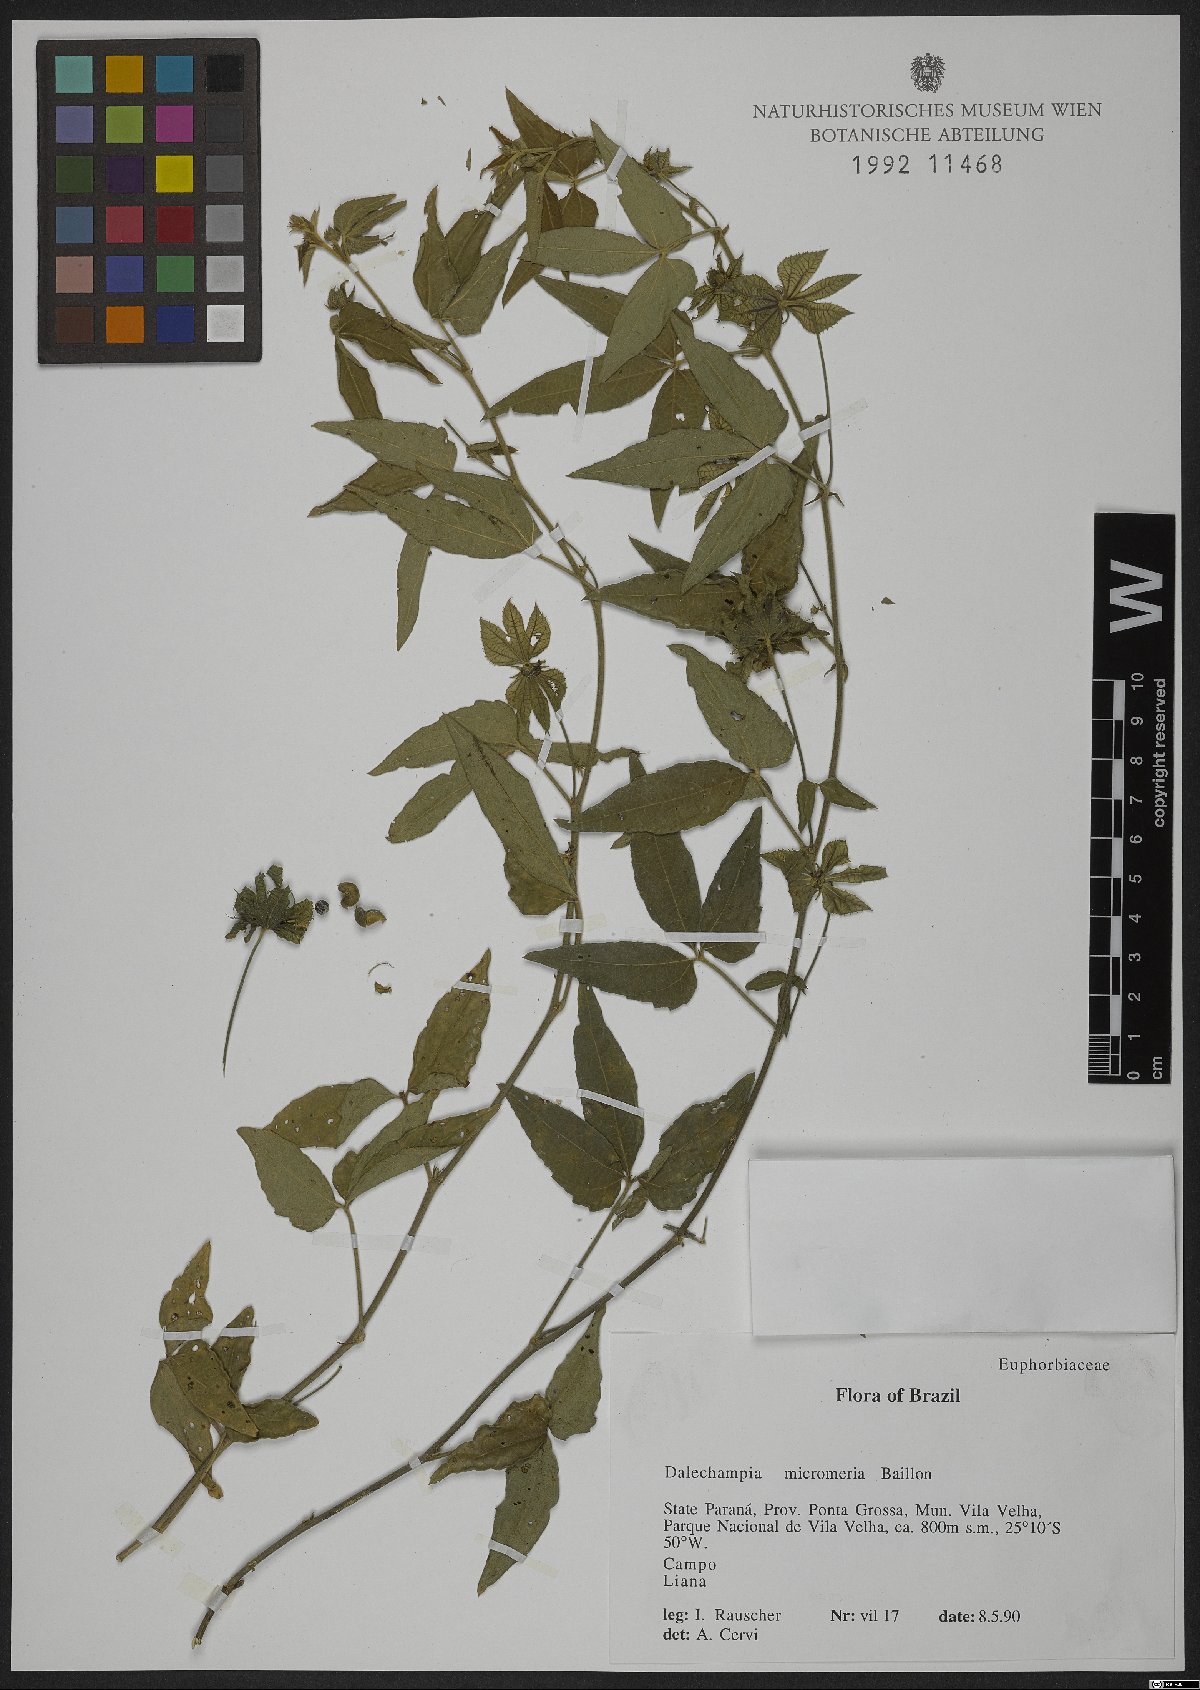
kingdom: Plantae
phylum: Tracheophyta
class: Magnoliopsida
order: Malpighiales
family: Euphorbiaceae
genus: Dalechampia
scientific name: Dalechampia micromeria
